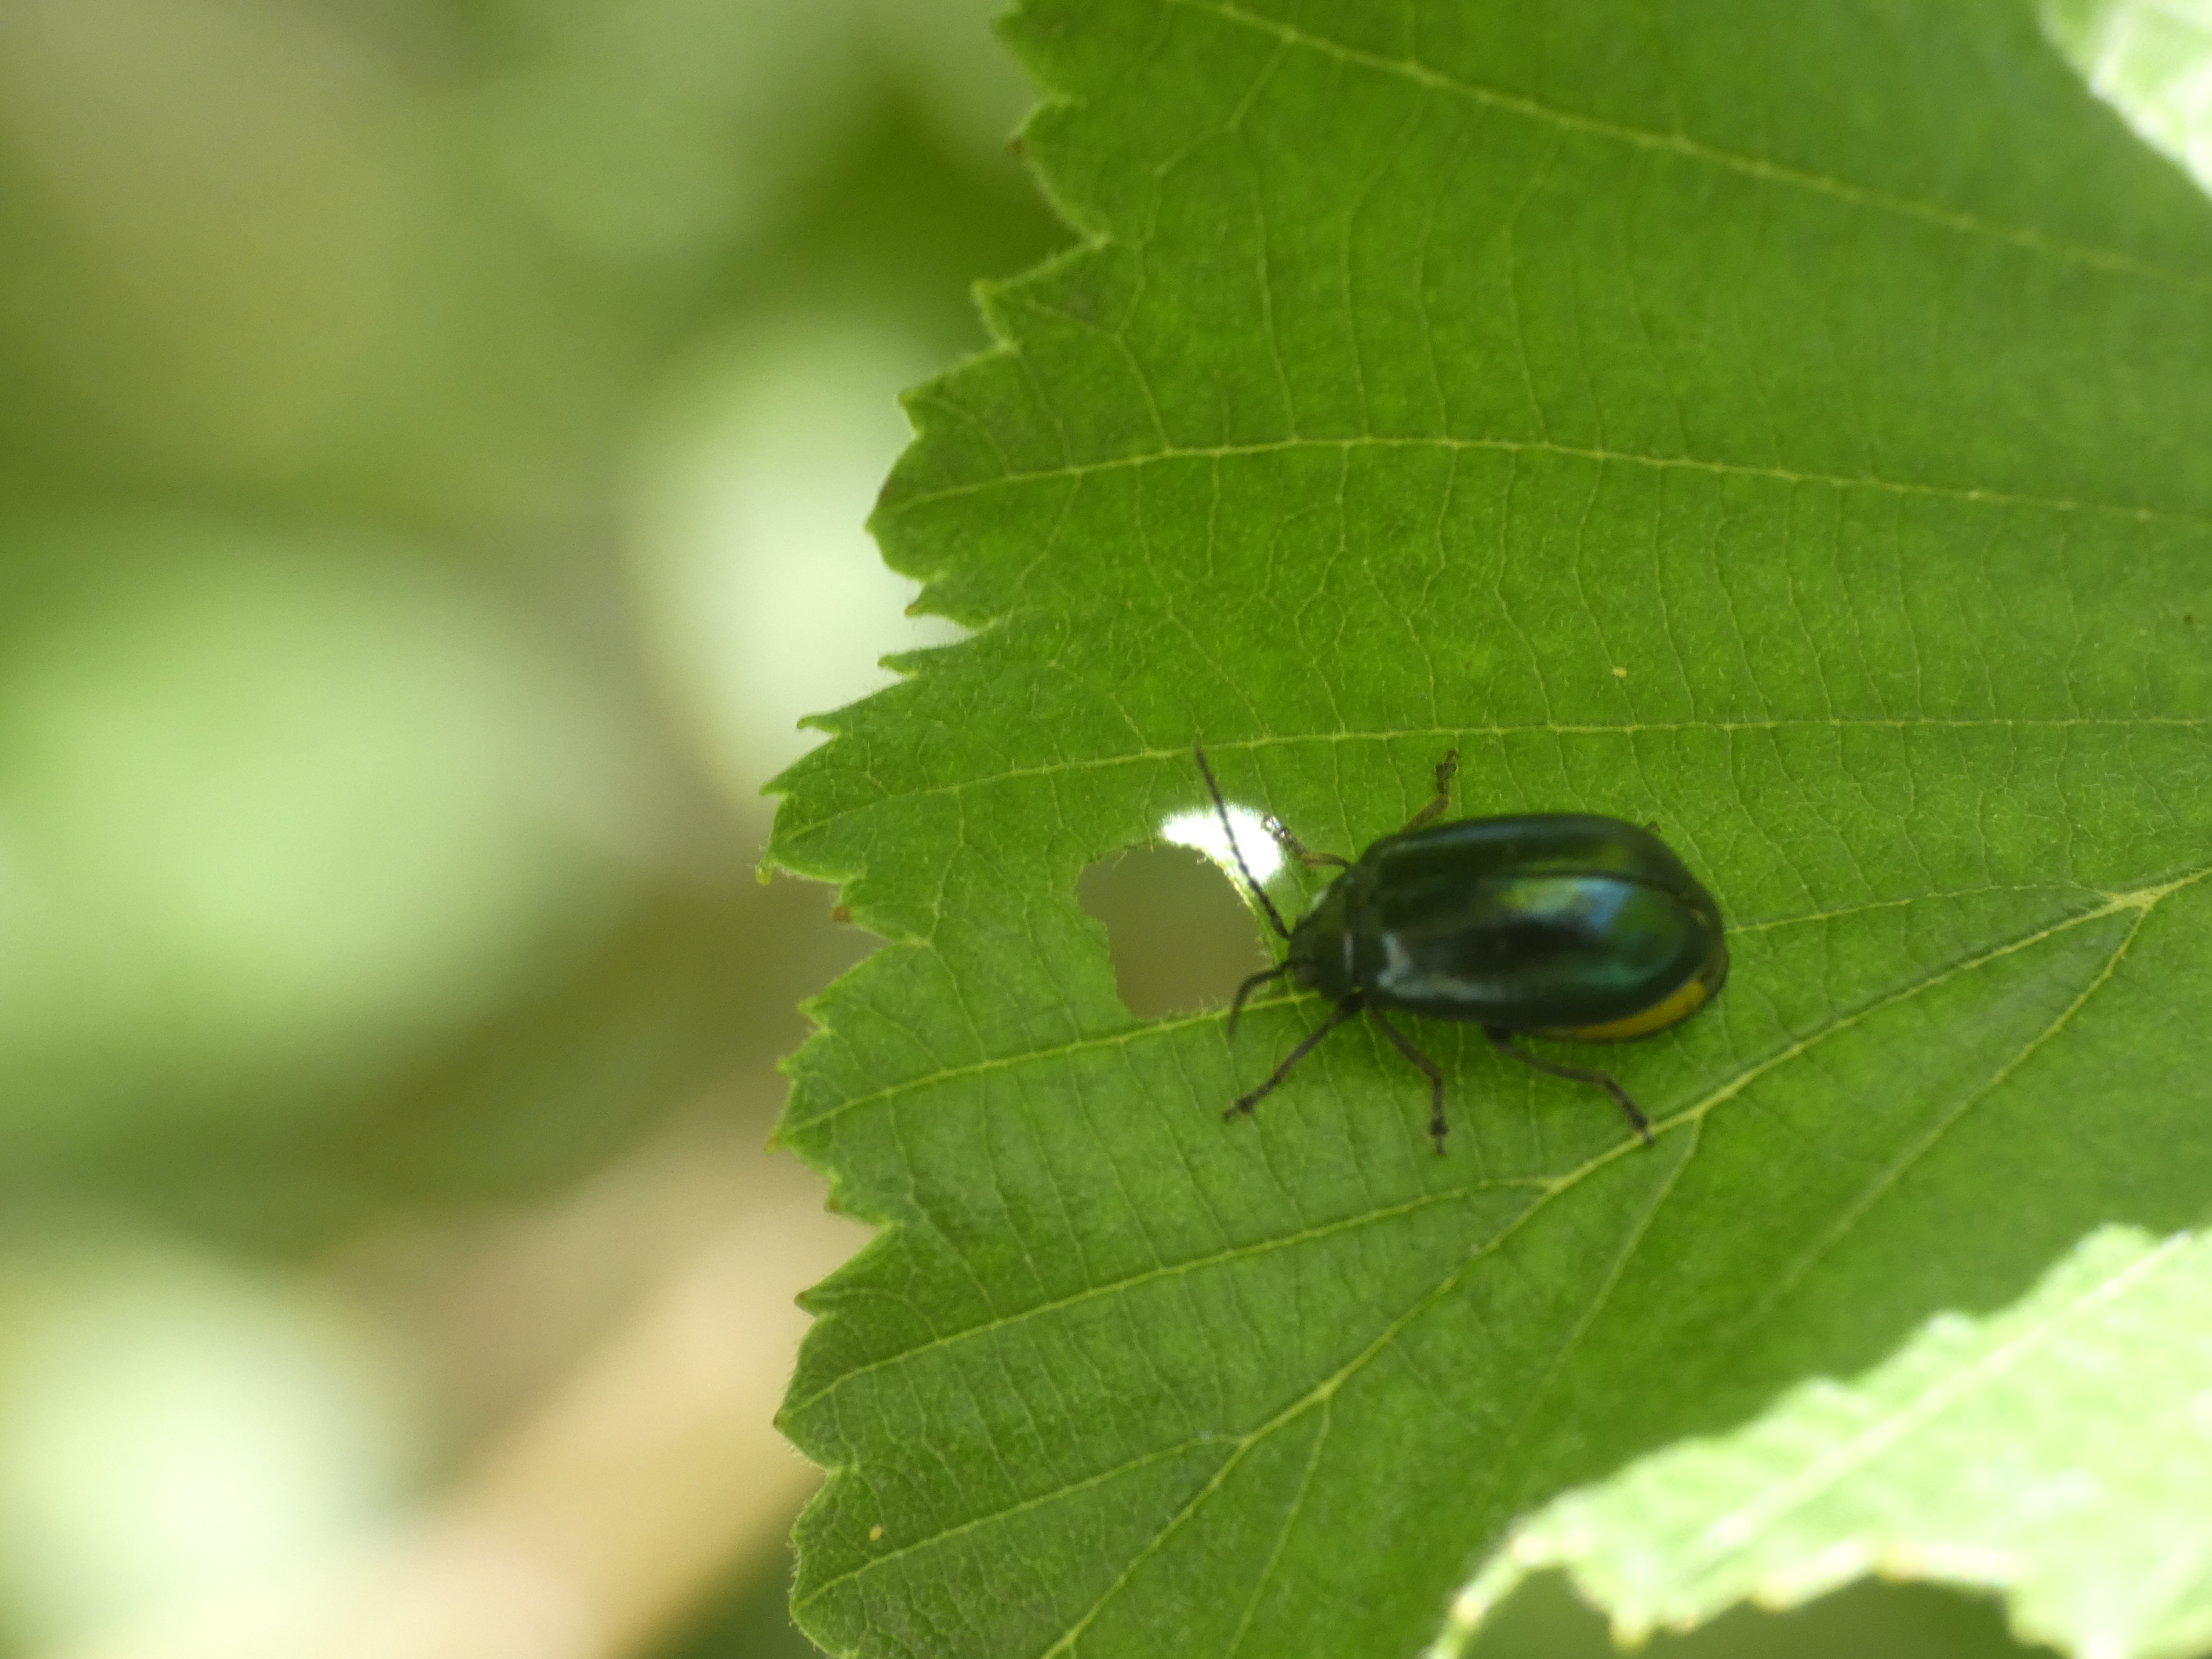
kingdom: Animalia
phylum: Arthropoda
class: Insecta
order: Coleoptera
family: Chrysomelidae
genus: Agelastica
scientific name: Agelastica alni
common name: Ellebladbille
